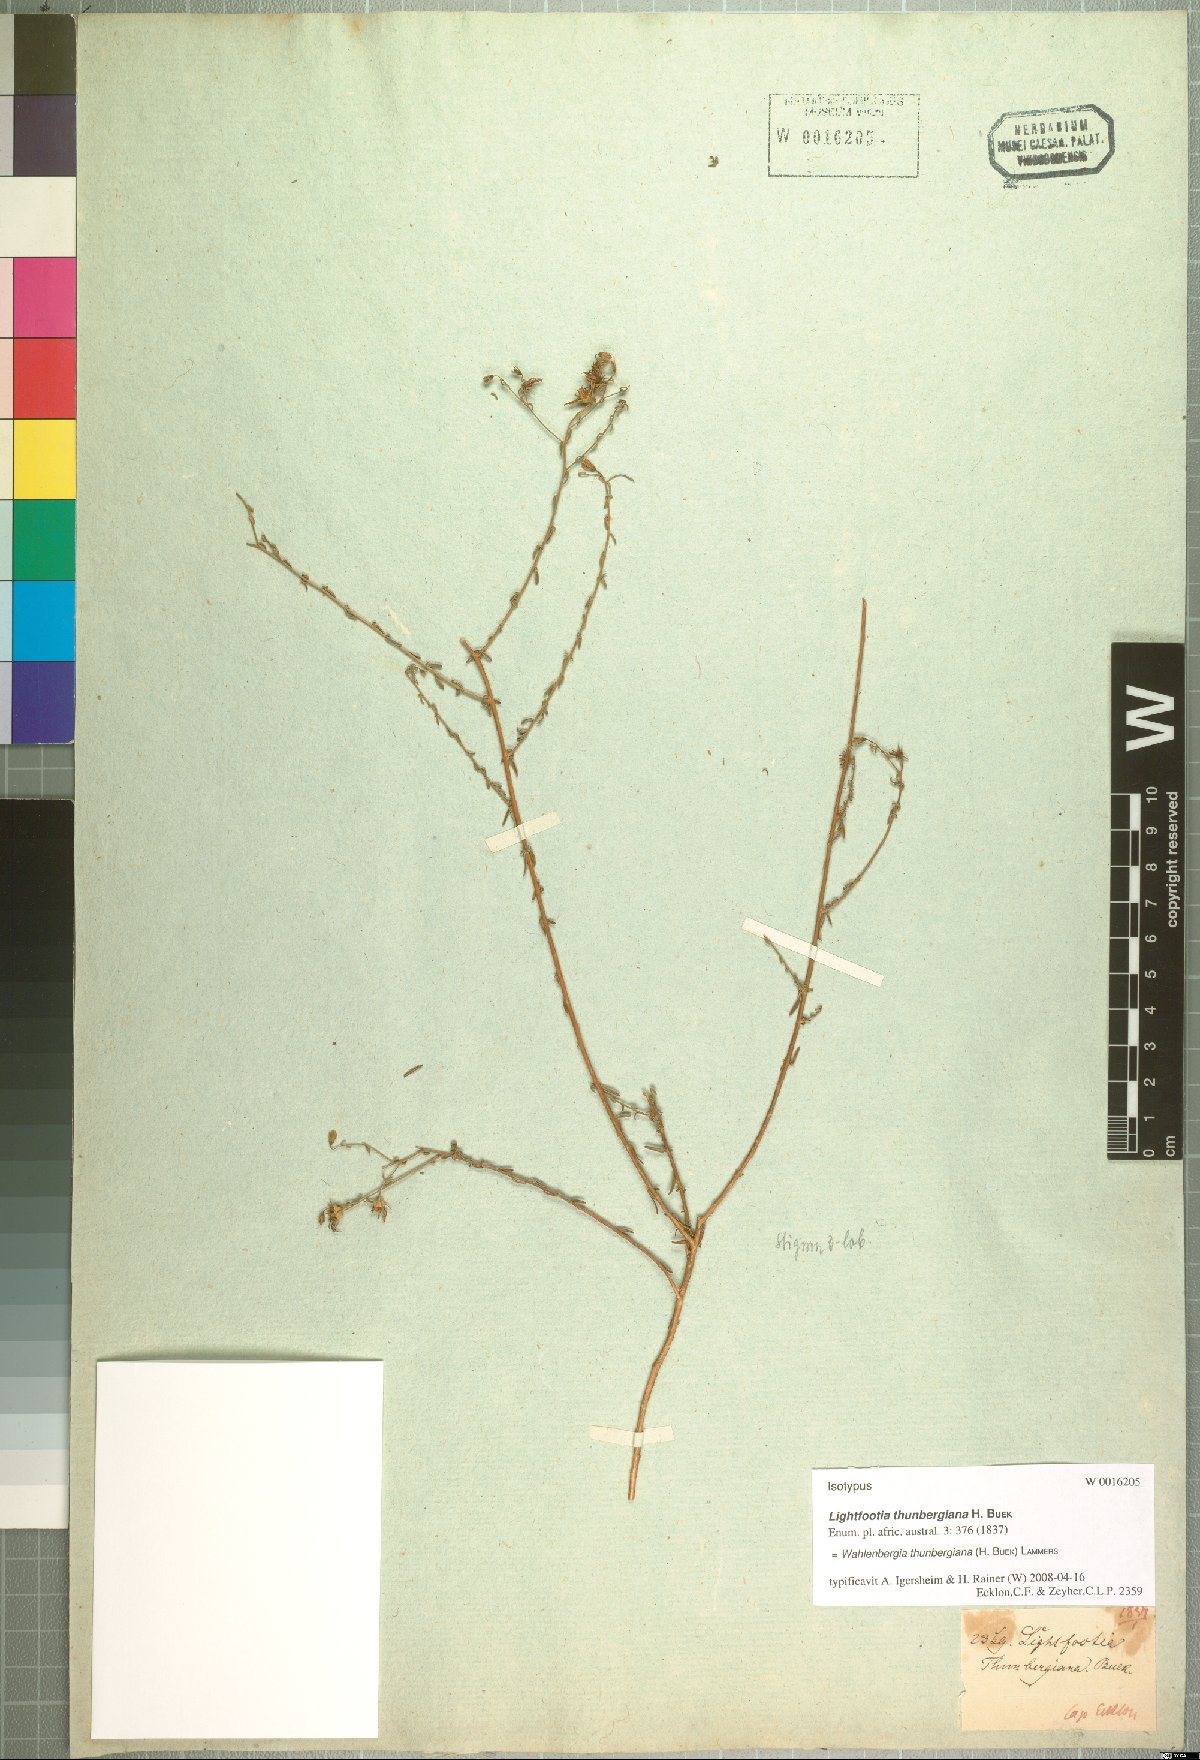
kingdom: Plantae
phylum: Tracheophyta
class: Magnoliopsida
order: Asterales
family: Campanulaceae
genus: Wahlenbergia
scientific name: Wahlenbergia thunbergiana
